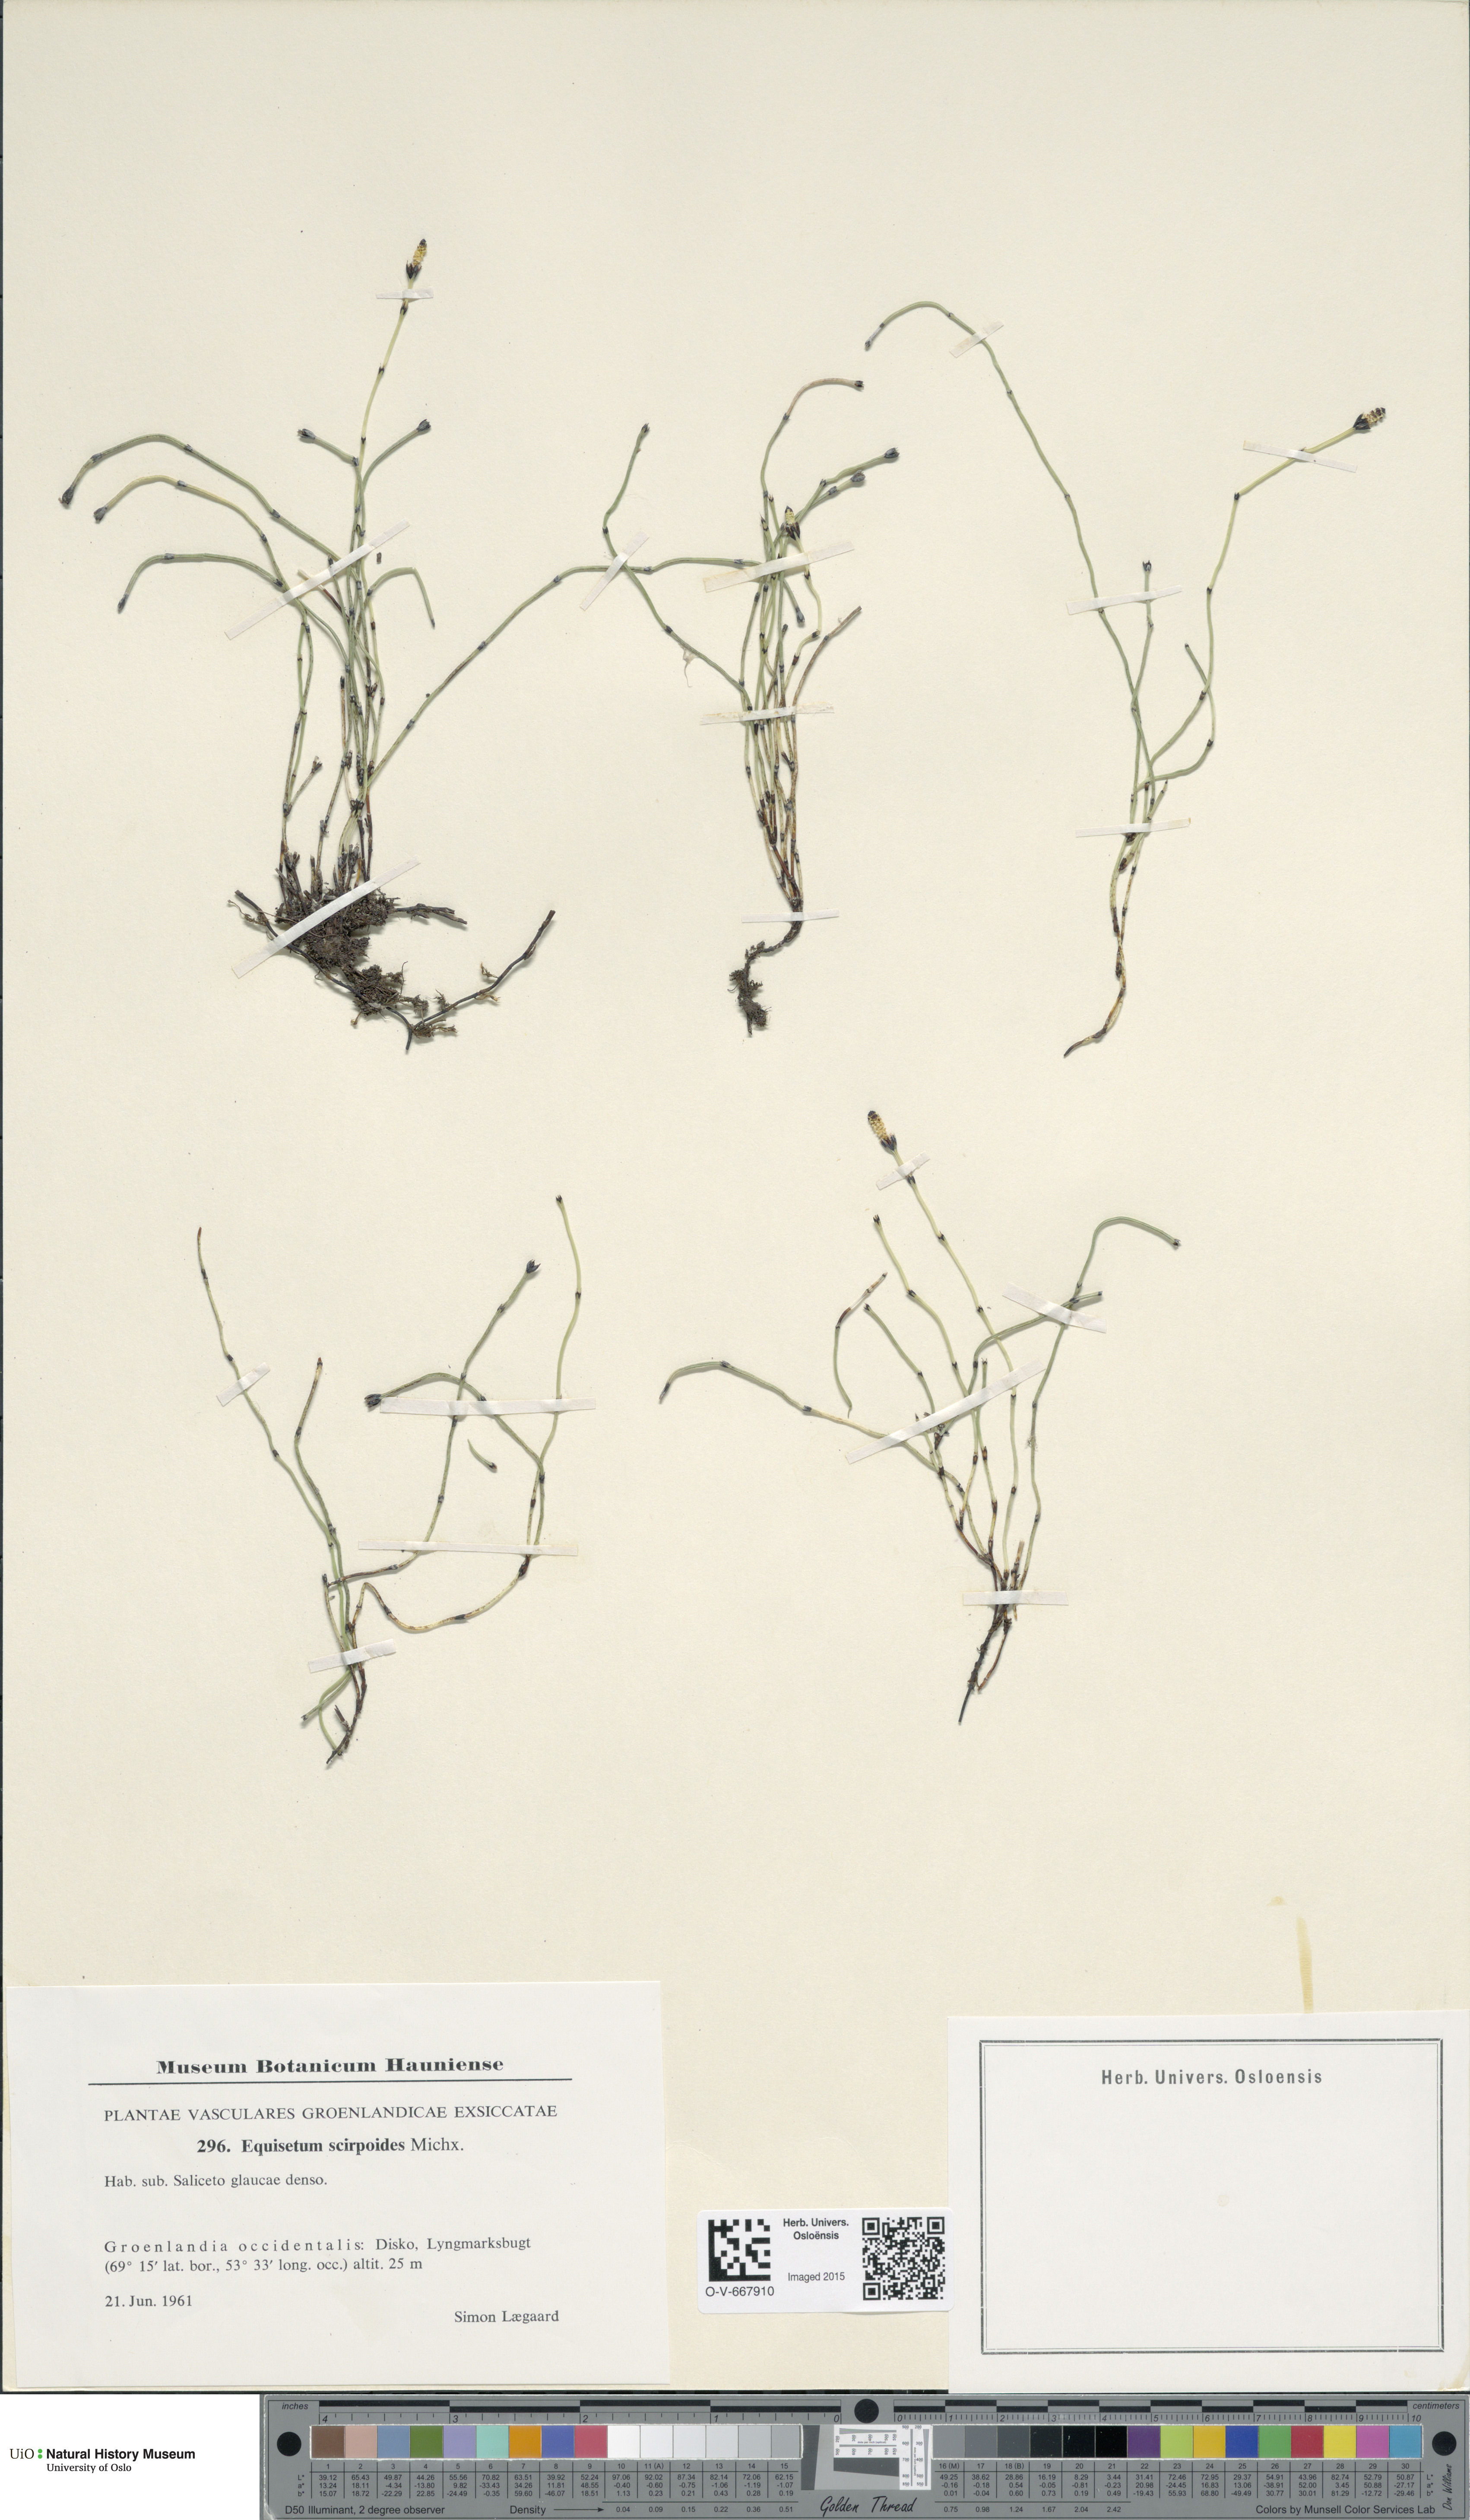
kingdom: Plantae
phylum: Tracheophyta
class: Polypodiopsida
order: Equisetales
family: Equisetaceae
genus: Equisetum
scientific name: Equisetum scirpoides
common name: Delicate horsetail
